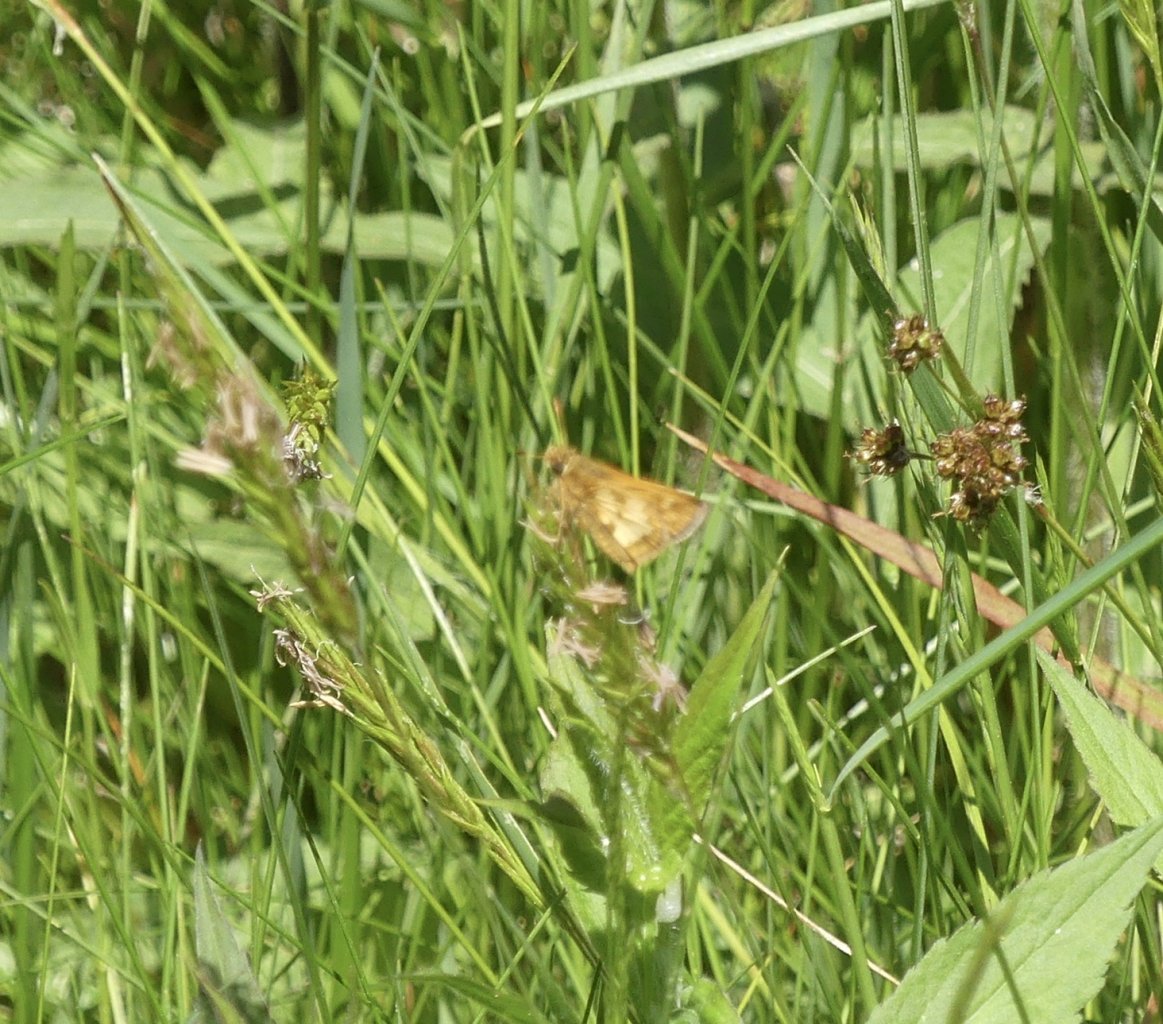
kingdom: Animalia
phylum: Arthropoda
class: Insecta
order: Lepidoptera
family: Hesperiidae
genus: Polites
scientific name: Polites coras
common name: Peck's Skipper
